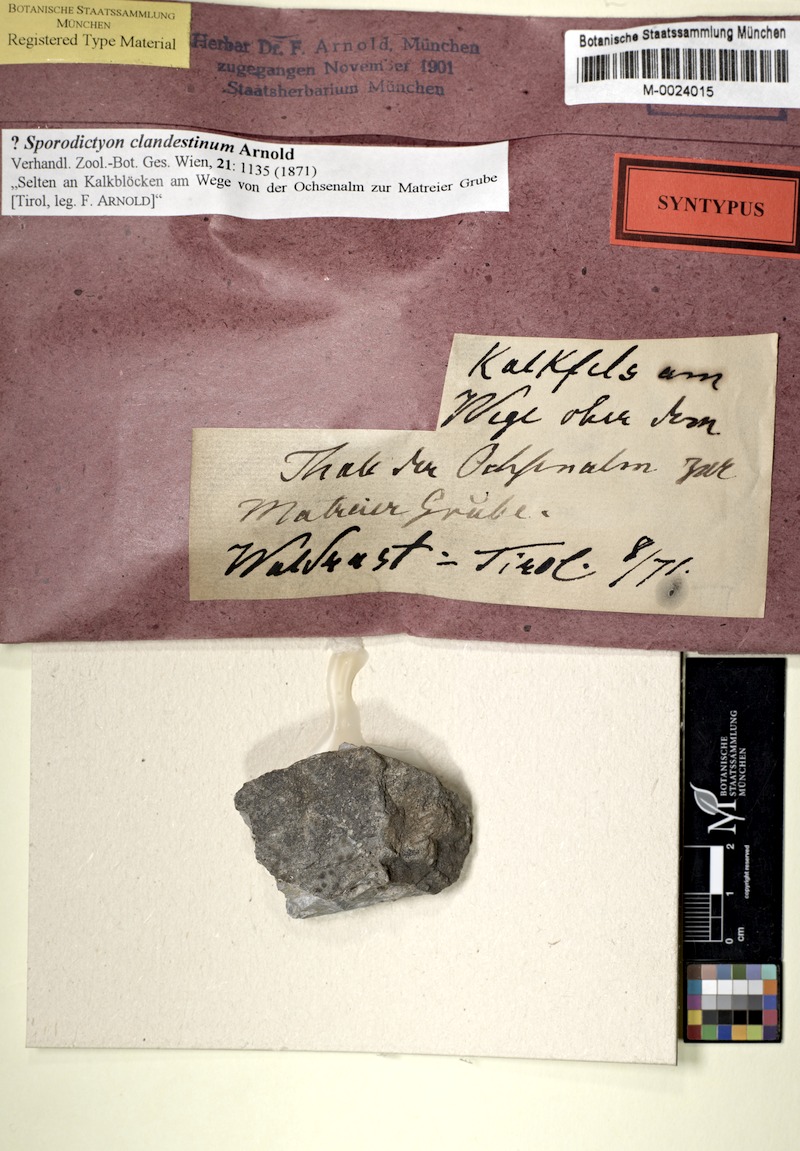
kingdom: Fungi
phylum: Ascomycota
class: Eurotiomycetes
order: Verrucariales
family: Verrucariaceae
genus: Sporodictyon
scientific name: Sporodictyon clandestinum
